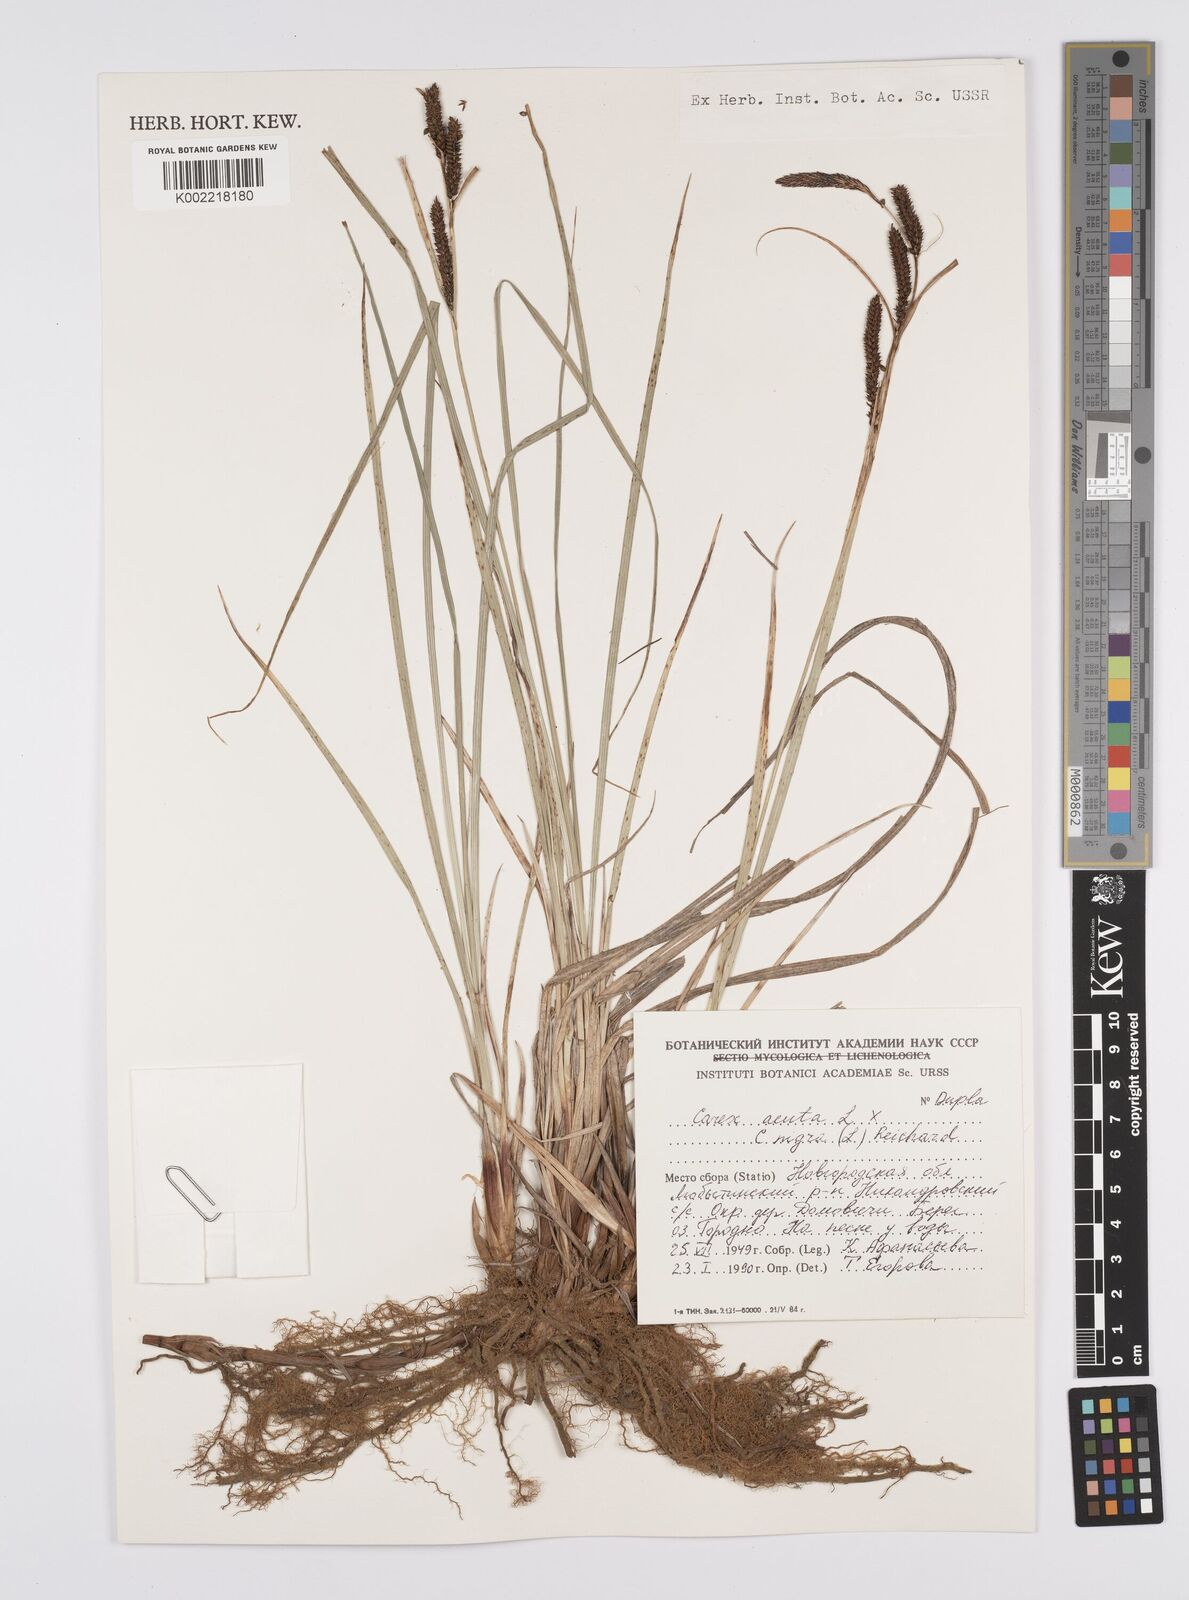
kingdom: Plantae
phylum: Tracheophyta
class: Liliopsida
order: Poales
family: Cyperaceae
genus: Carex
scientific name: Carex acuta
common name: Slender tufted-sedge
